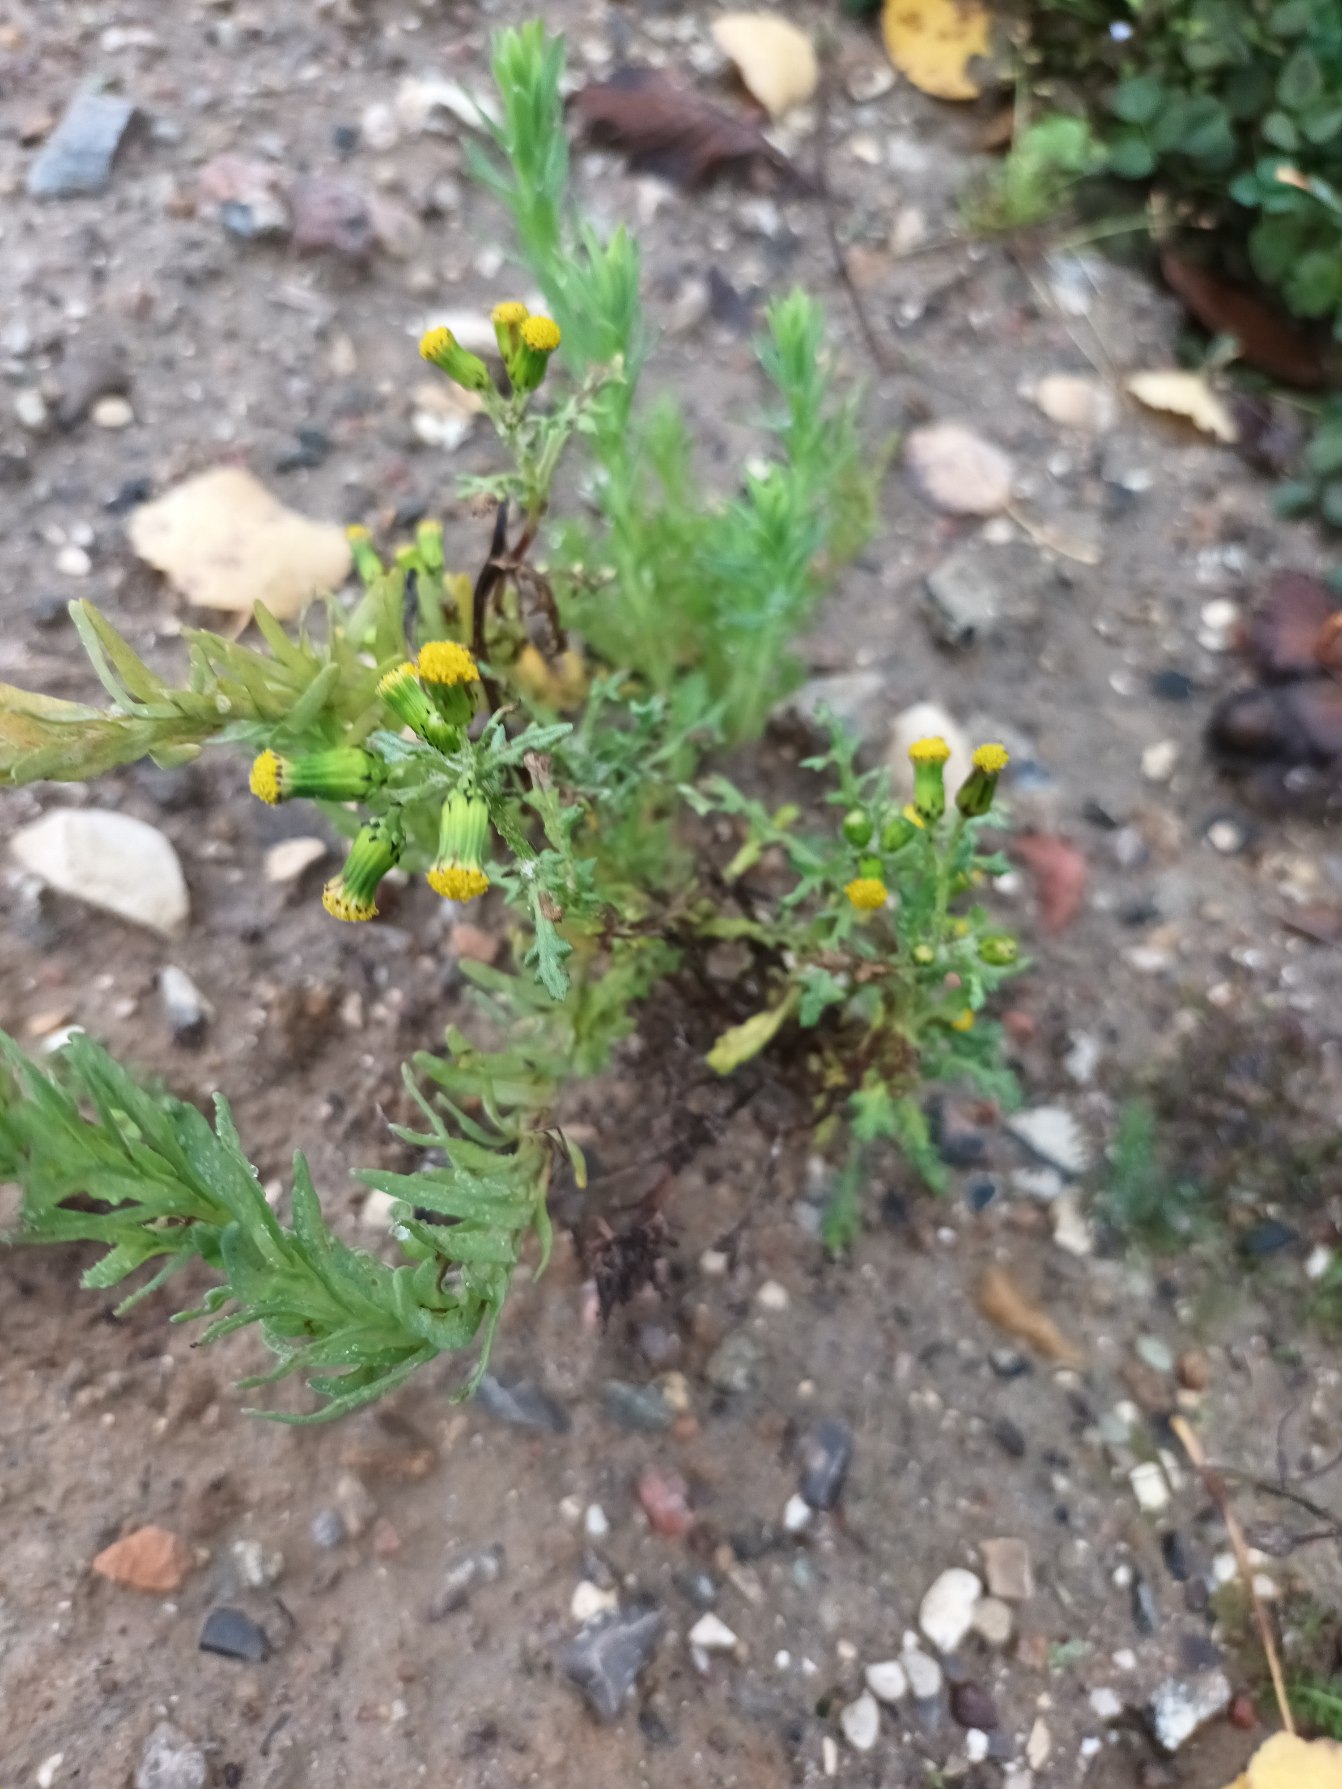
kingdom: Plantae
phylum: Tracheophyta
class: Magnoliopsida
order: Asterales
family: Asteraceae
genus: Senecio
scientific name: Senecio vulgaris
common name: Almindelig brandbæger
